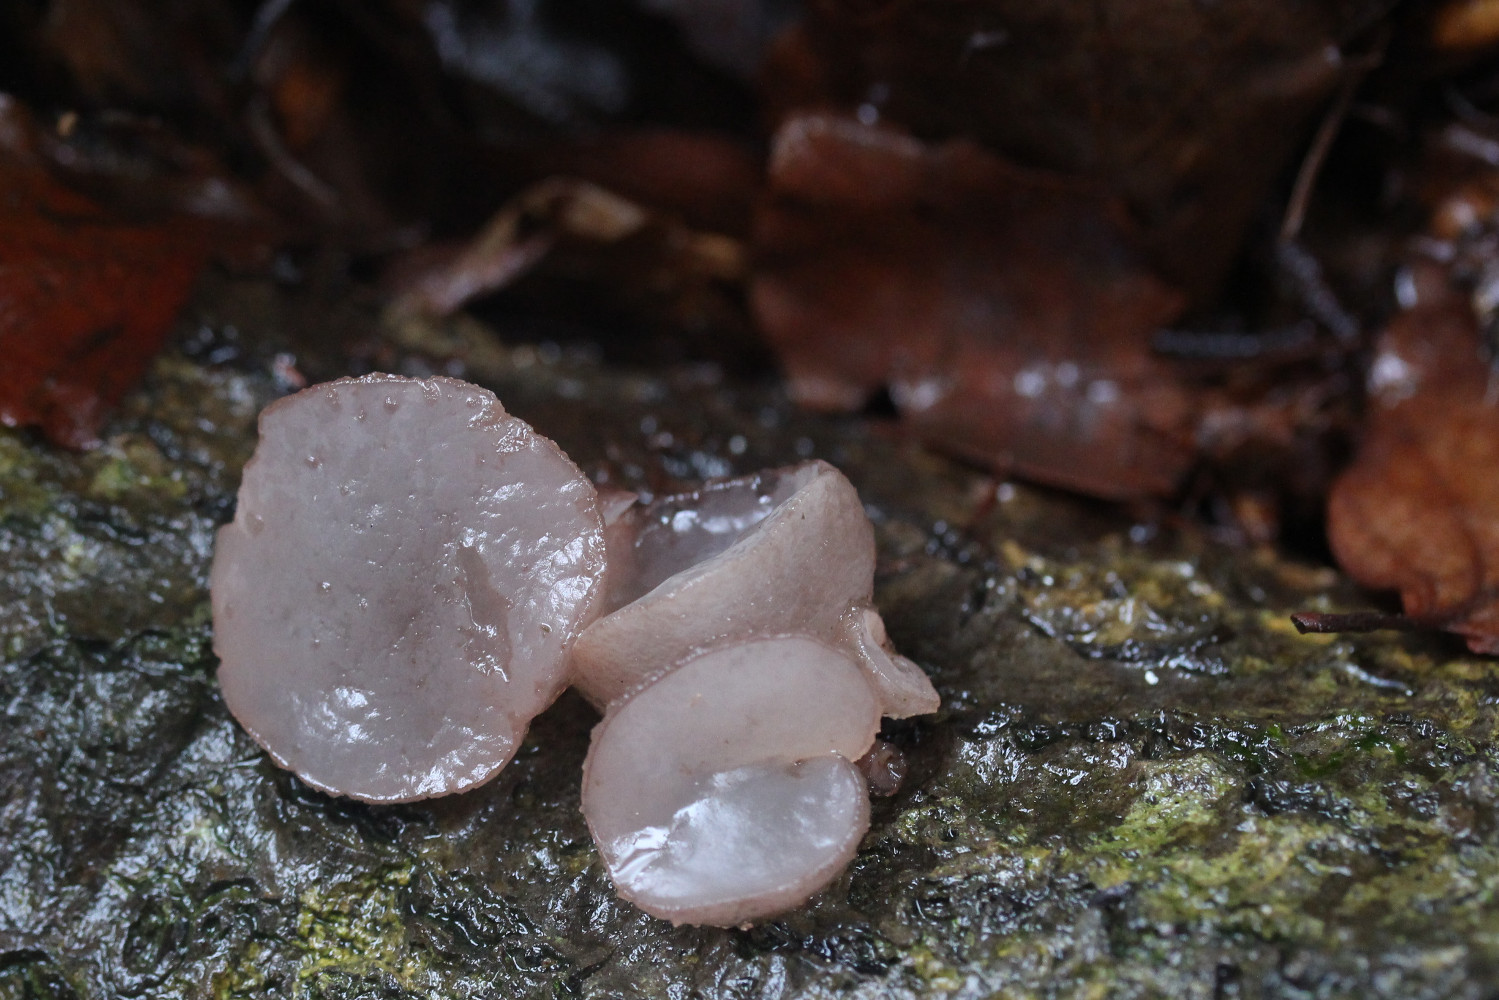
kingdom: Fungi
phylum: Ascomycota
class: Leotiomycetes
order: Helotiales
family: Gelatinodiscaceae
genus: Neobulgaria
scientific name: Neobulgaria pura
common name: bleg bævreskive
